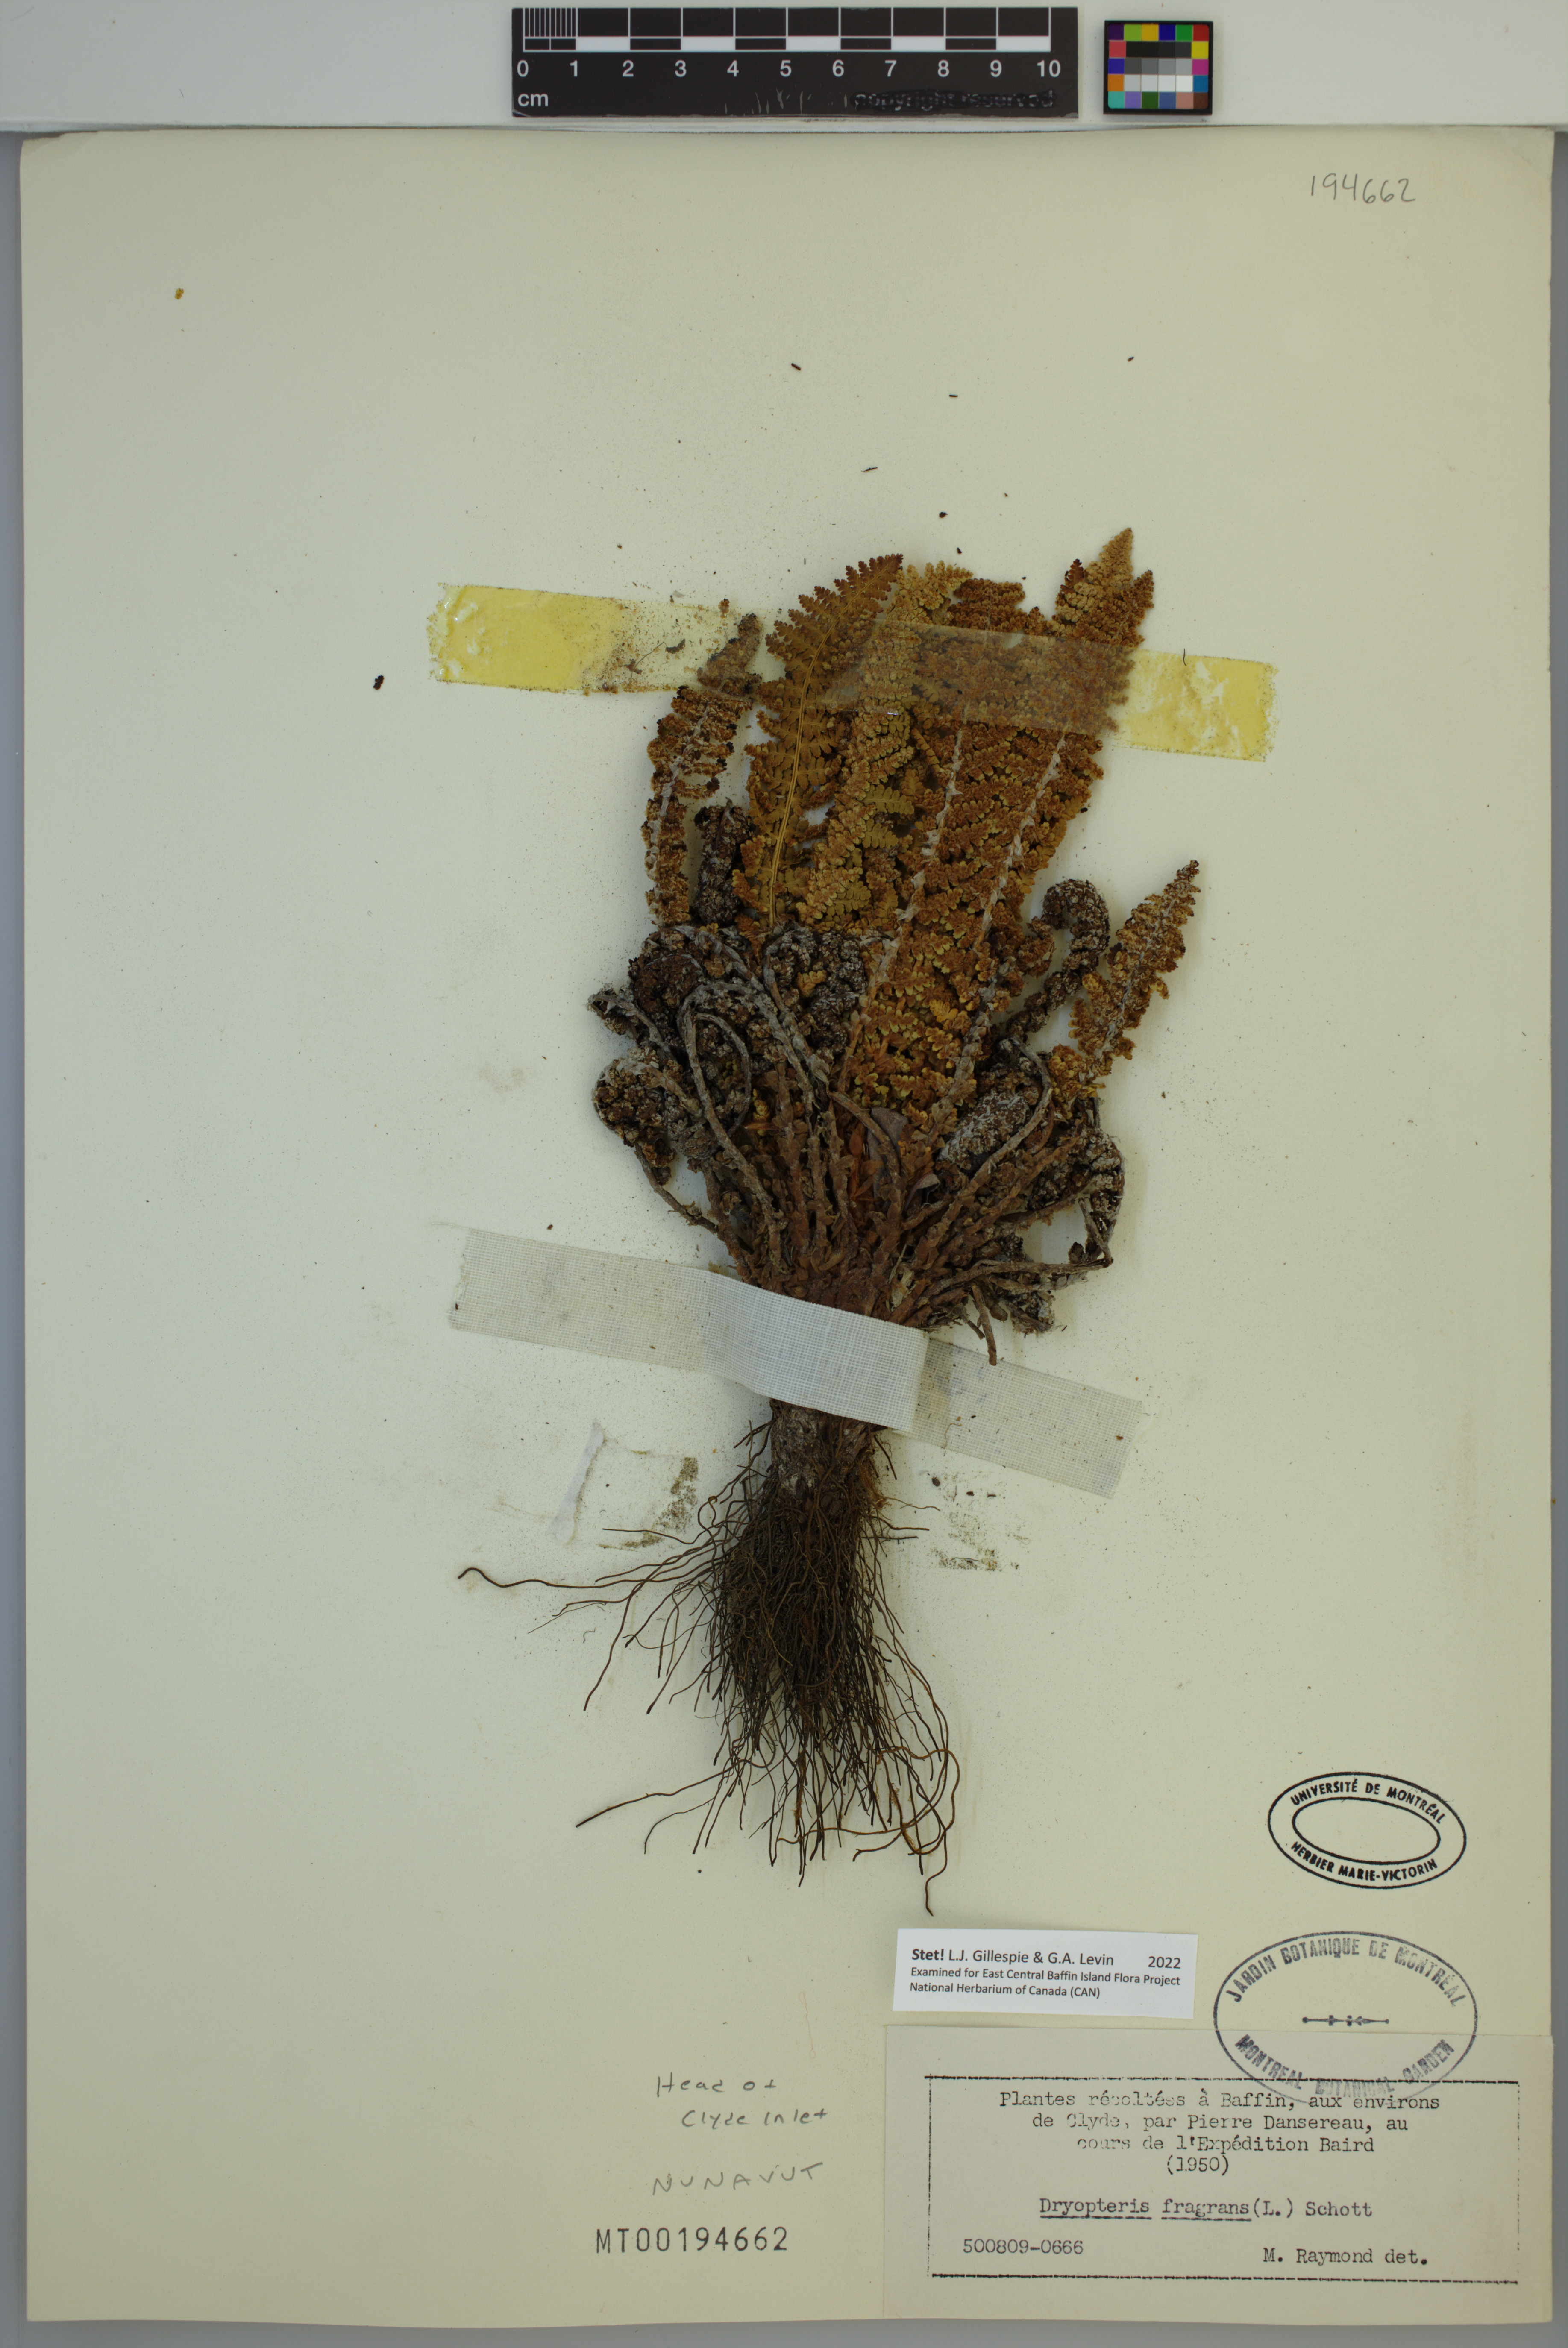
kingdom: Plantae
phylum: Tracheophyta
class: Polypodiopsida
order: Polypodiales
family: Dryopteridaceae
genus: Dryopteris
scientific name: Dryopteris fragrans
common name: Fragrant wood fern
